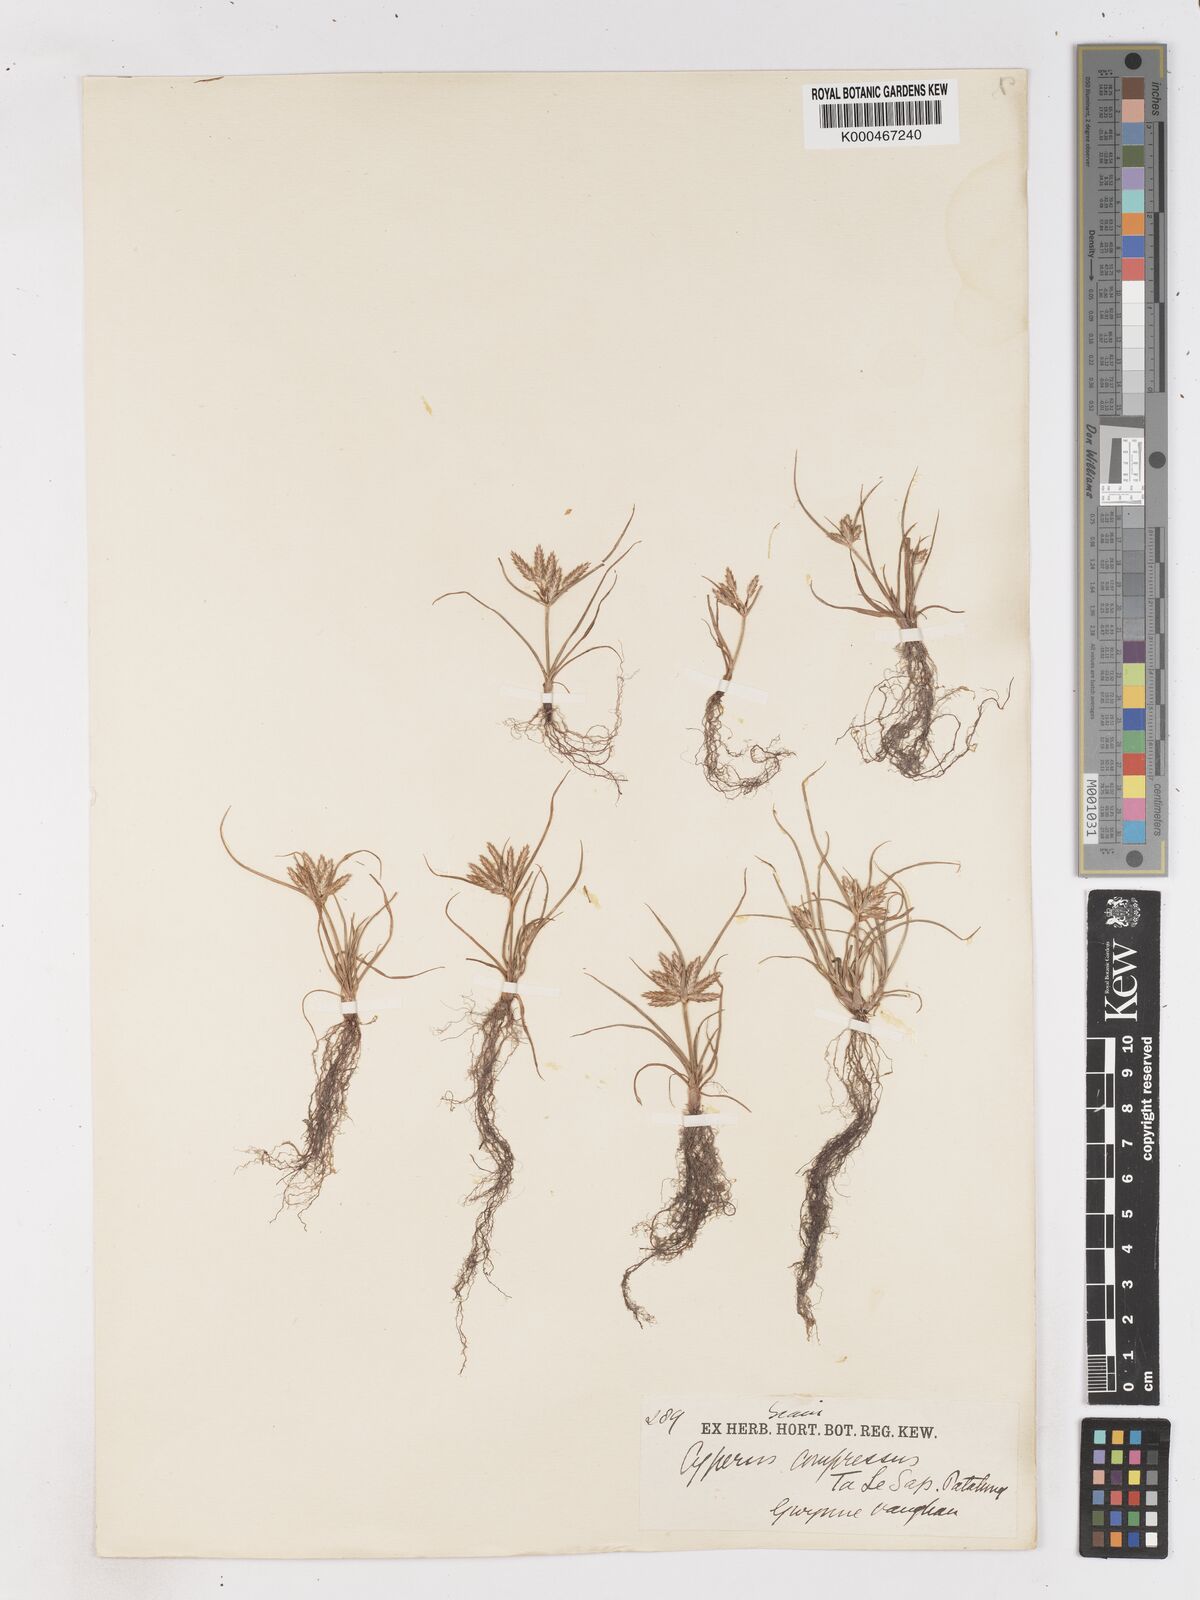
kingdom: Plantae
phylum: Tracheophyta
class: Liliopsida
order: Poales
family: Cyperaceae
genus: Cyperus
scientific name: Cyperus compressus
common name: Poorland flatsedge
